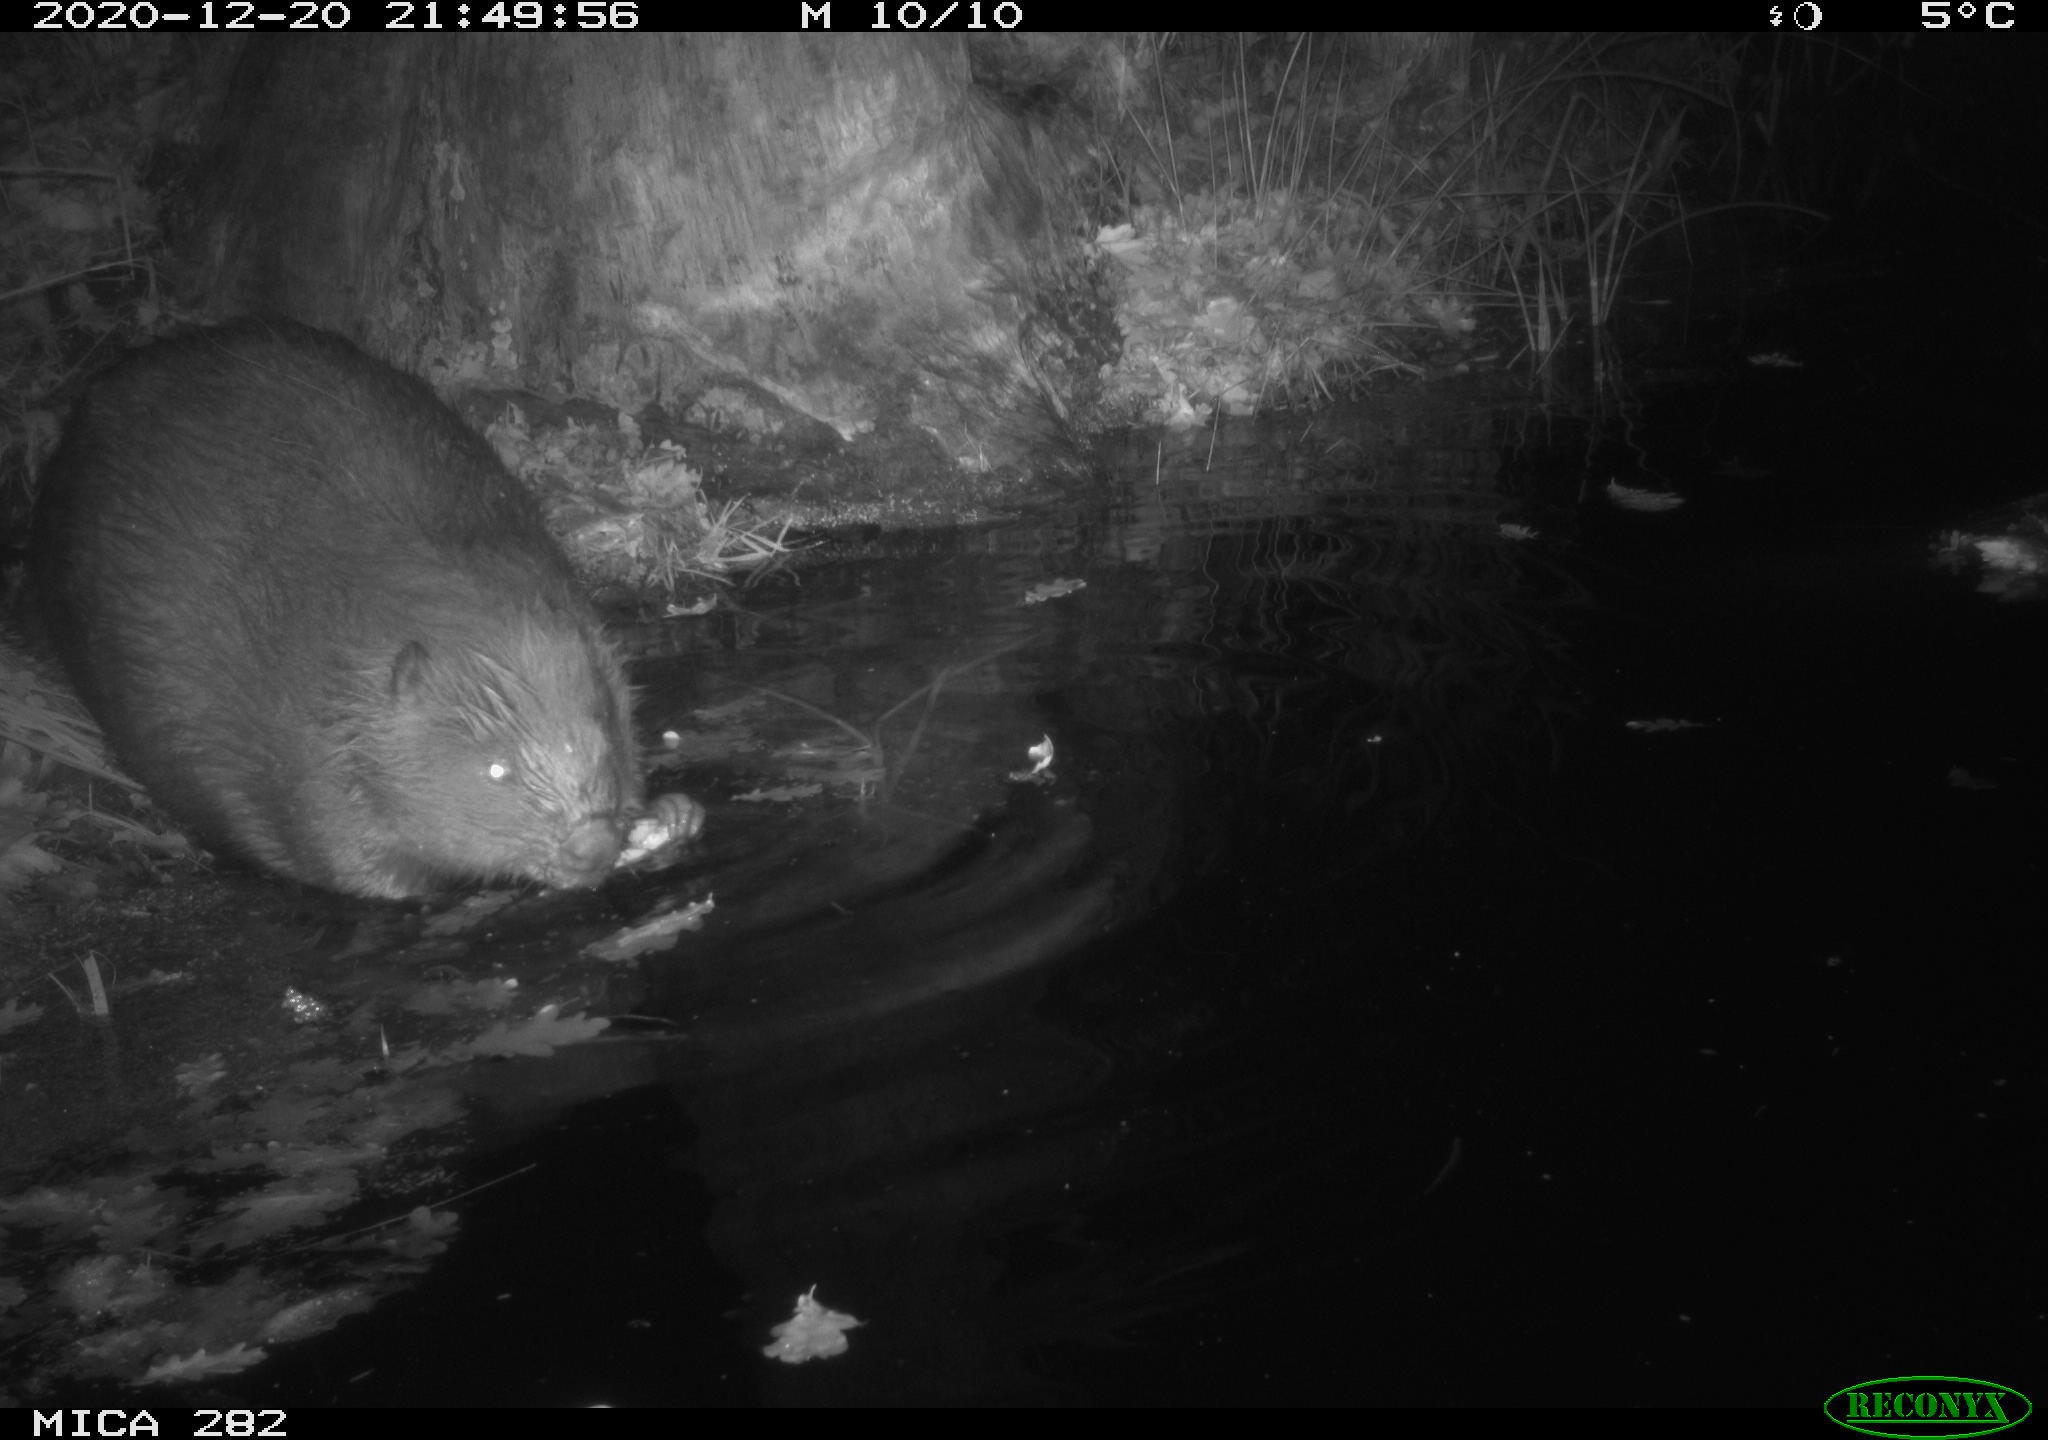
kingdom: Animalia
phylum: Chordata
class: Mammalia
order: Rodentia
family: Castoridae
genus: Castor
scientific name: Castor fiber
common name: Eurasian beaver
